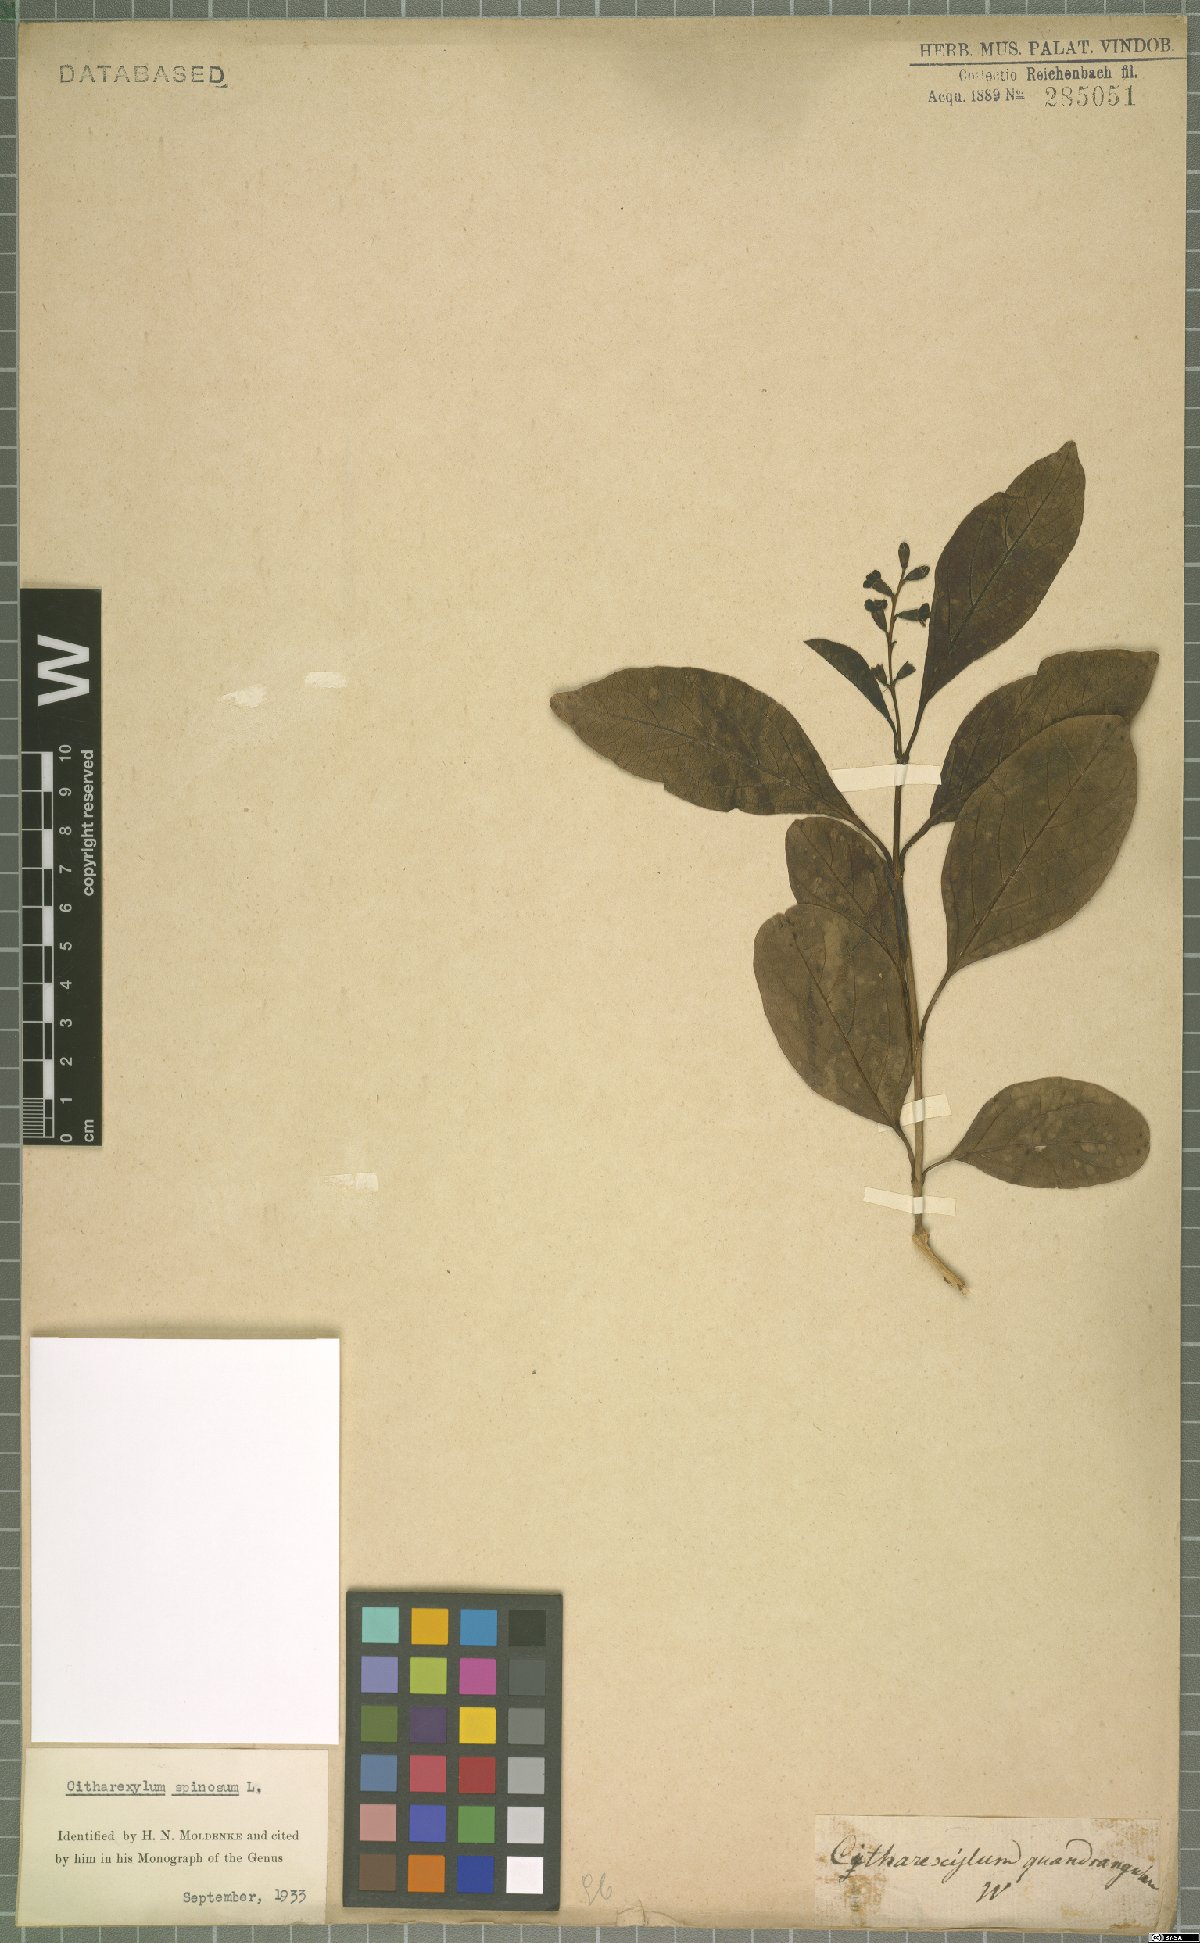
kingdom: Plantae
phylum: Tracheophyta
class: Magnoliopsida
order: Lamiales
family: Verbenaceae
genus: Citharexylum
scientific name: Citharexylum spinosum
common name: Fiddlewood
